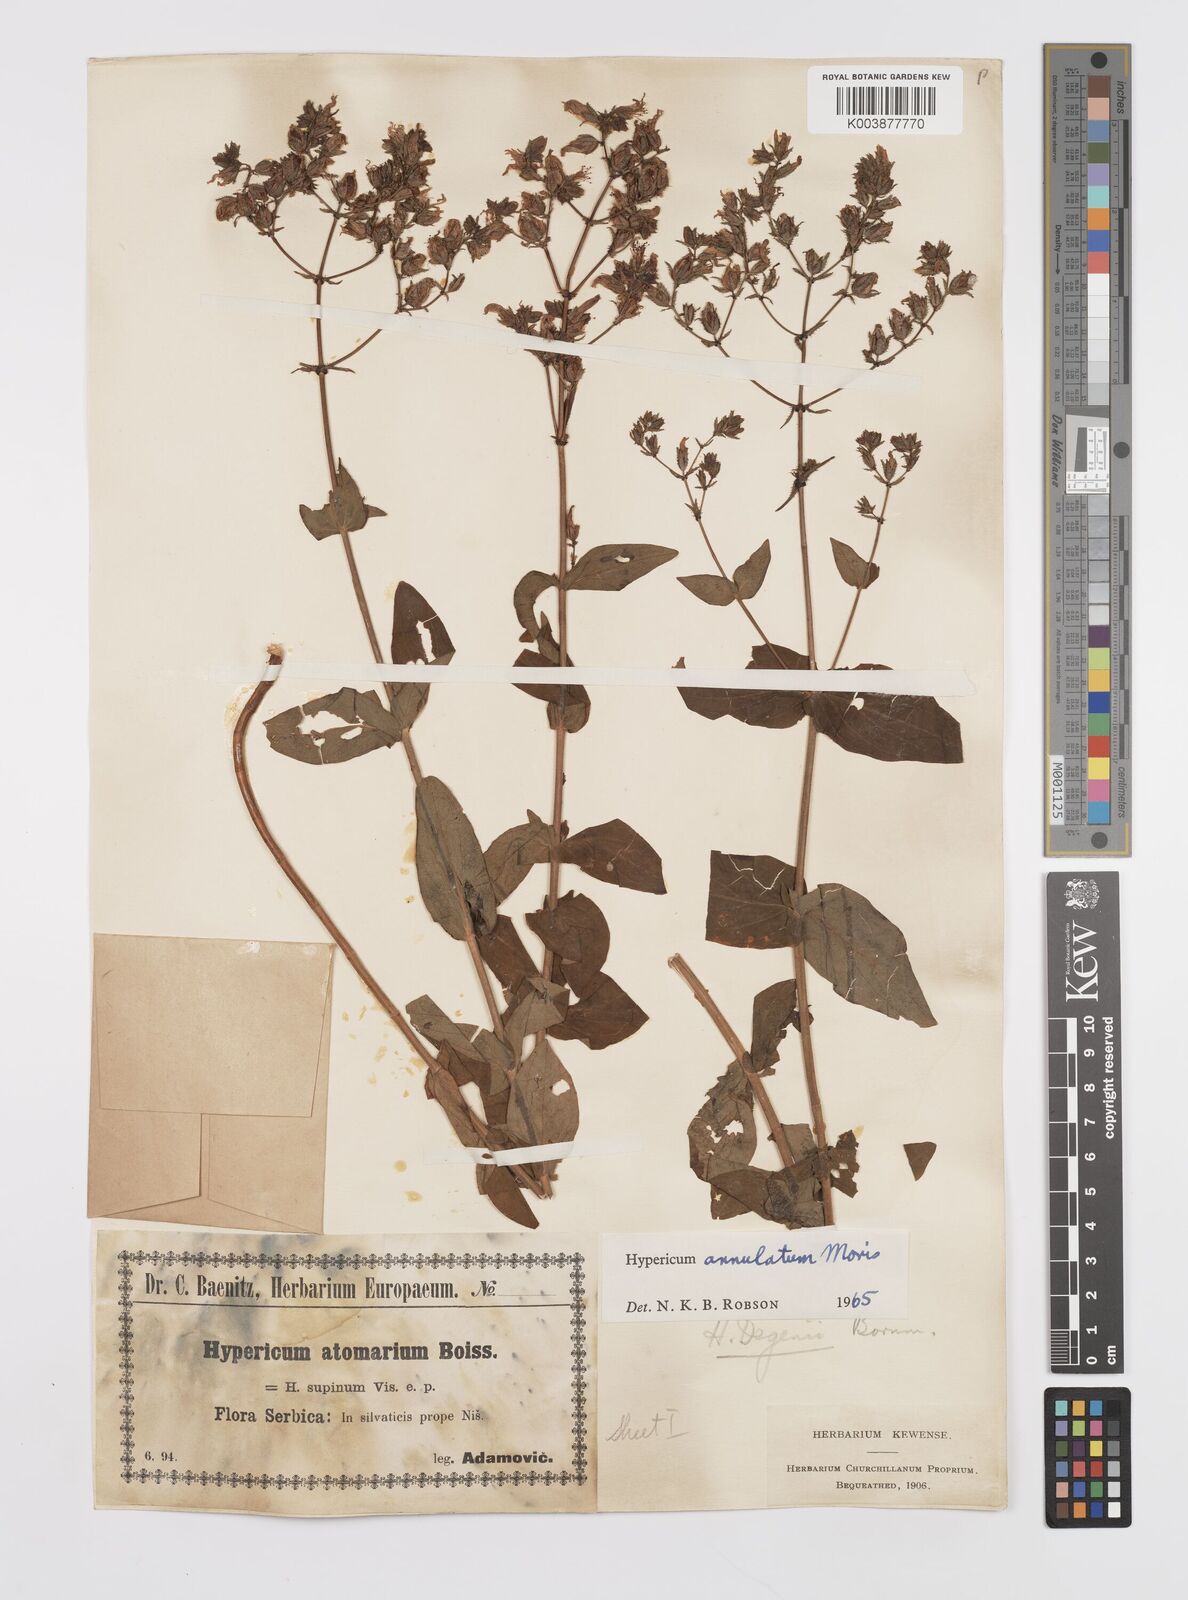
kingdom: Plantae
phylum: Tracheophyta
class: Magnoliopsida
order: Malpighiales
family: Hypericaceae
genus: Hypericum
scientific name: Hypericum annulatum
